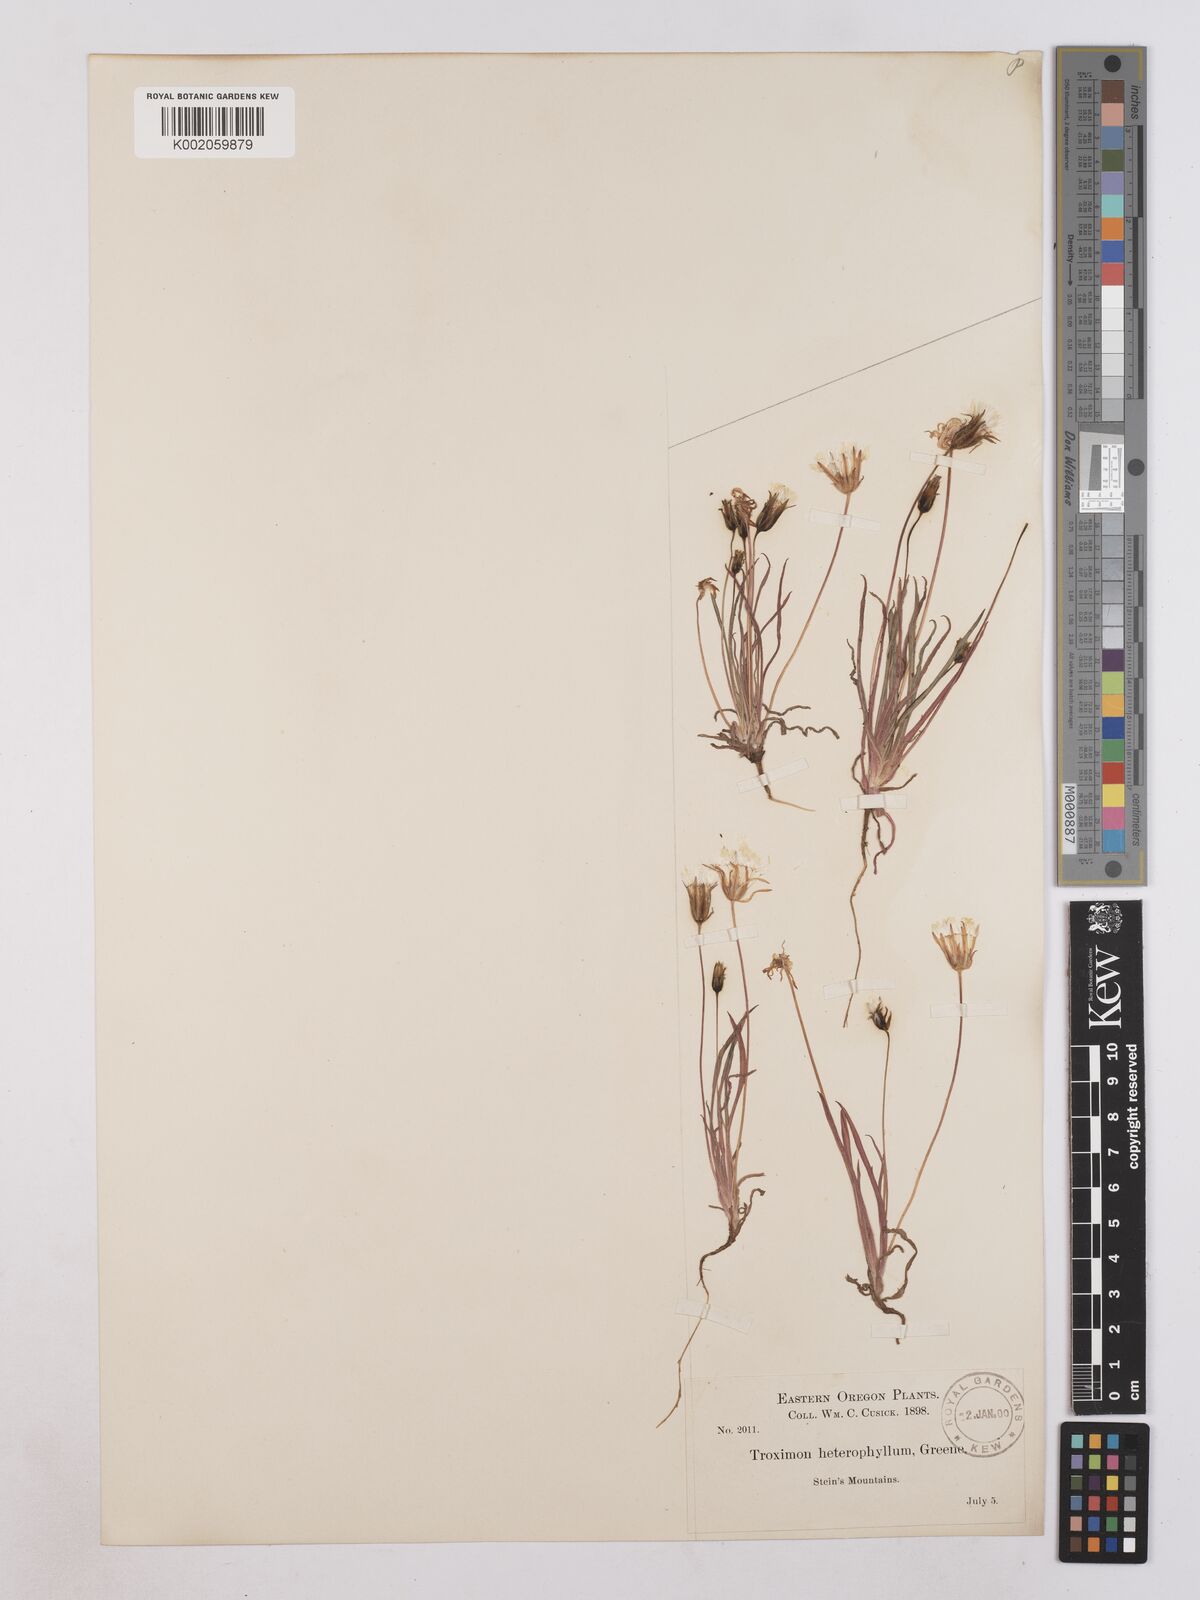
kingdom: Plantae
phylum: Tracheophyta
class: Magnoliopsida
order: Asterales
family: Asteraceae
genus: Agoseris
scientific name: Agoseris heterophylla
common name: Annual agoseris
